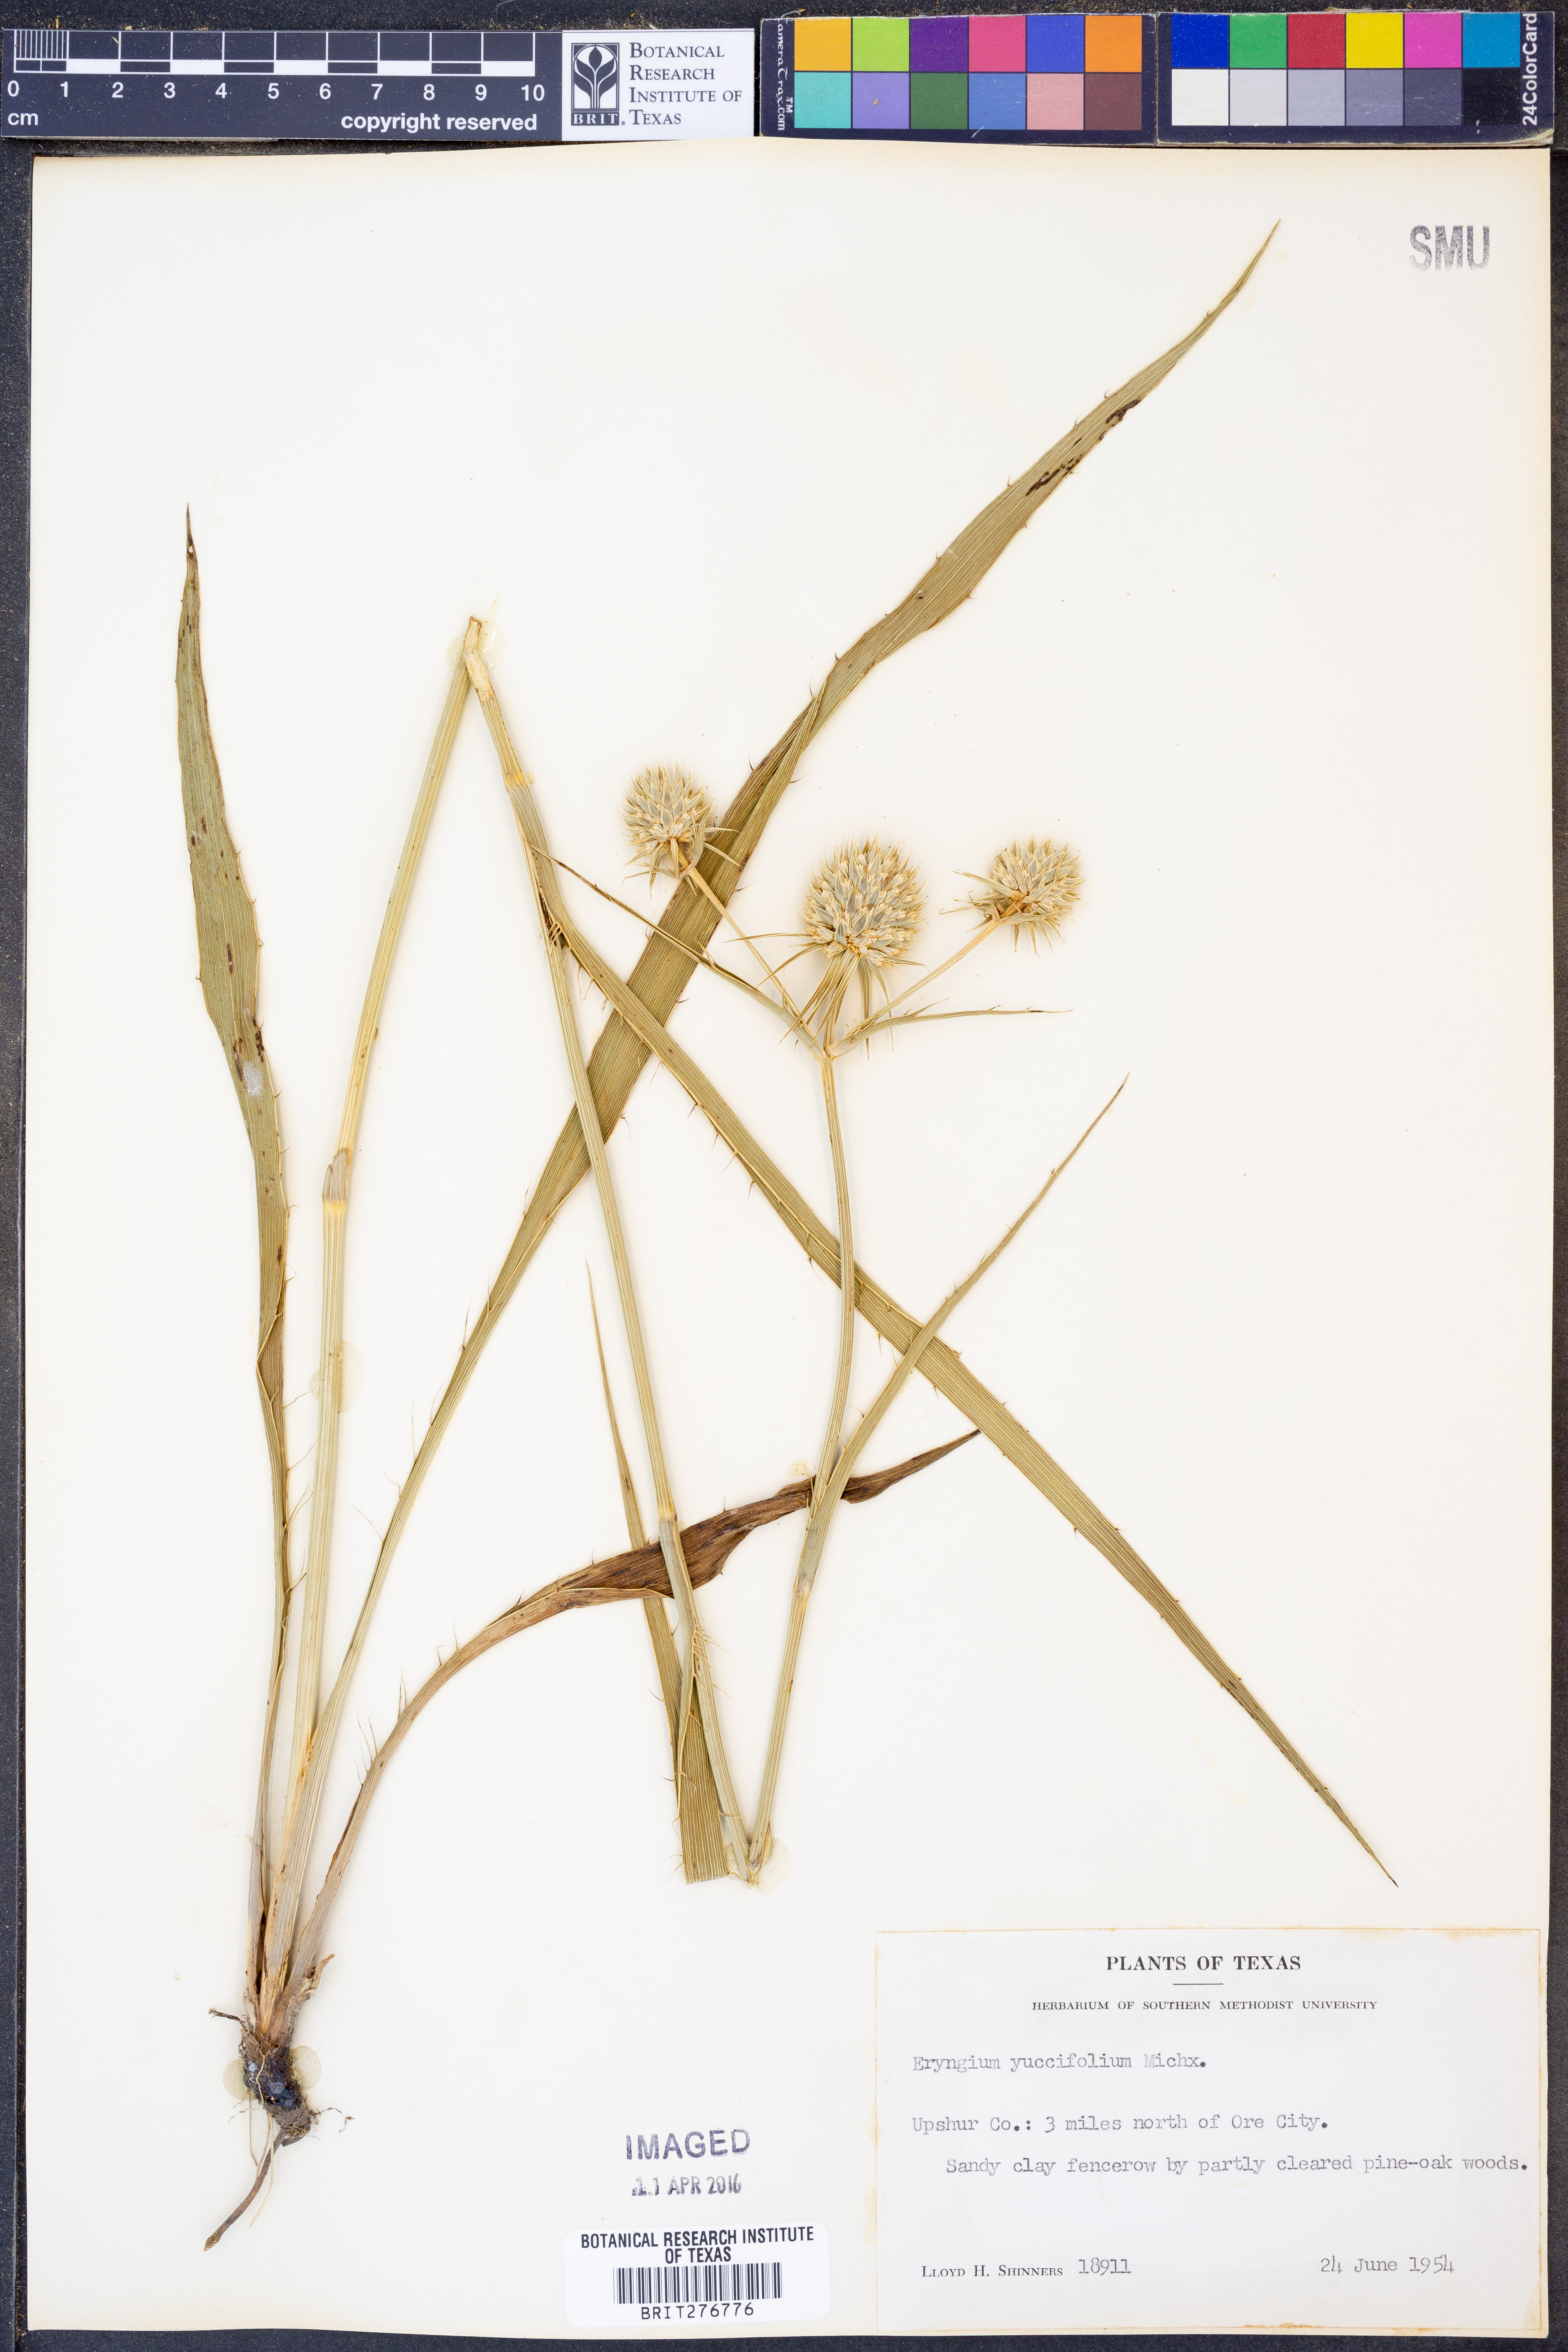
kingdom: Plantae
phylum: Tracheophyta
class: Magnoliopsida
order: Apiales
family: Apiaceae
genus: Eryngium
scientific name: Eryngium yuccifolium
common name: Button eryngo
